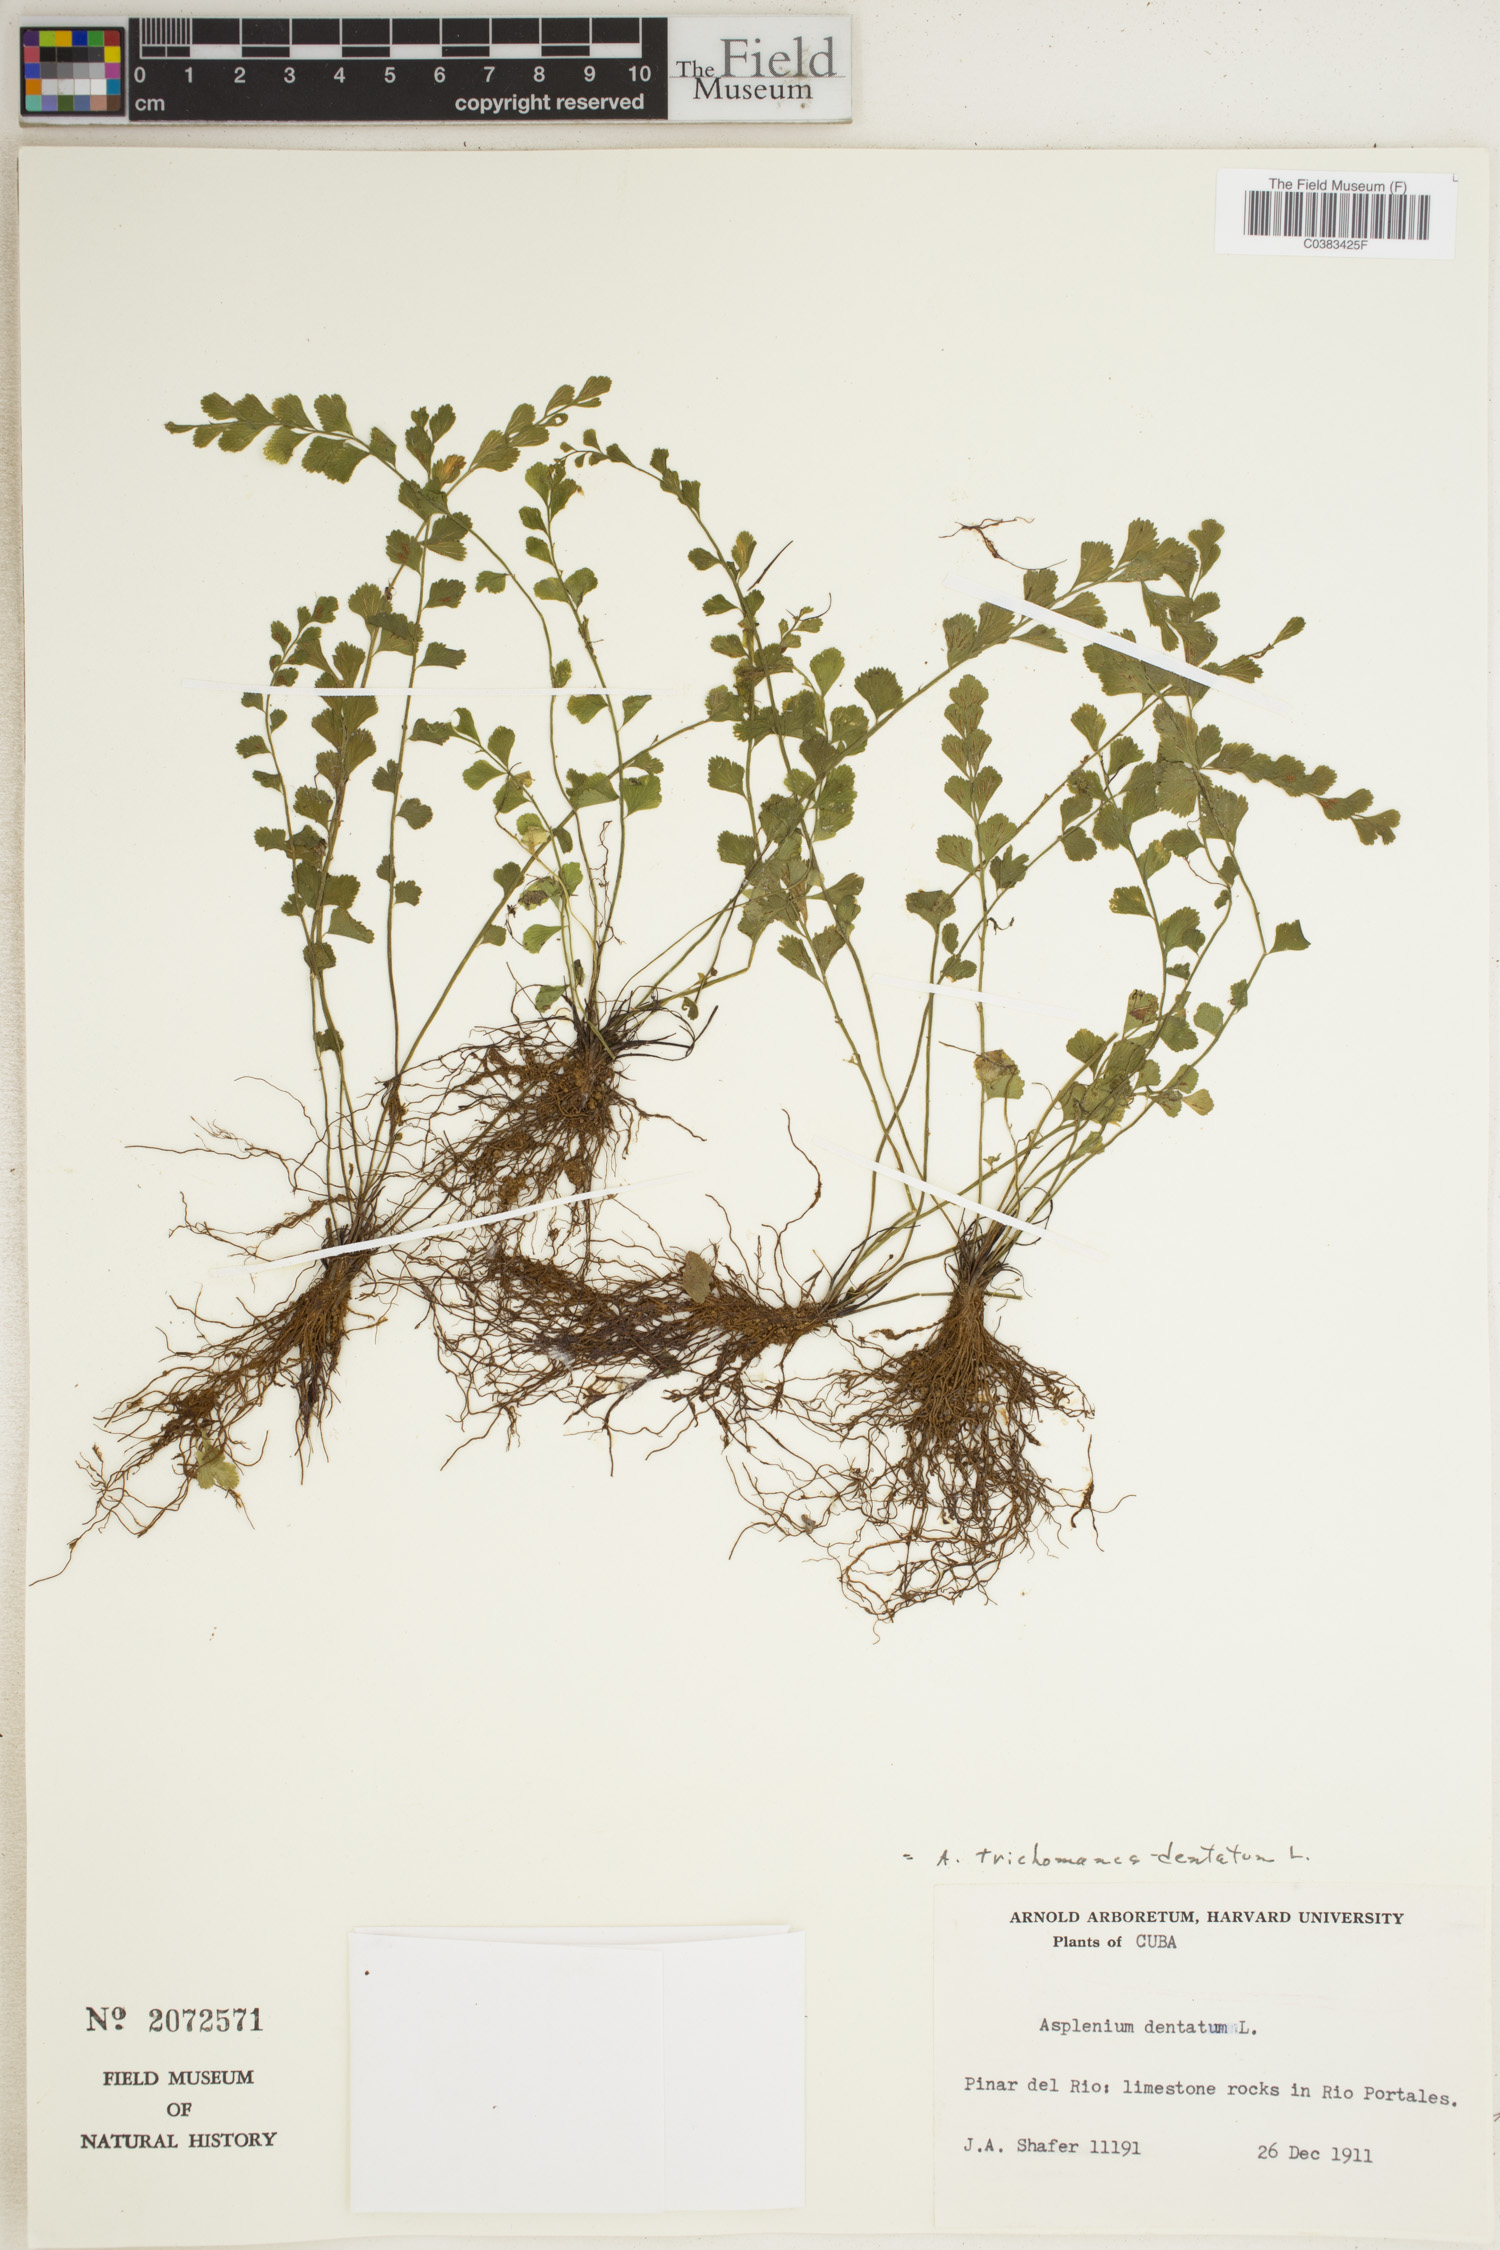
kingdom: Plantae
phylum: Tracheophyta
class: Polypodiopsida
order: Polypodiales
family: Aspleniaceae
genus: Asplenium
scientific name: Asplenium dentatum
